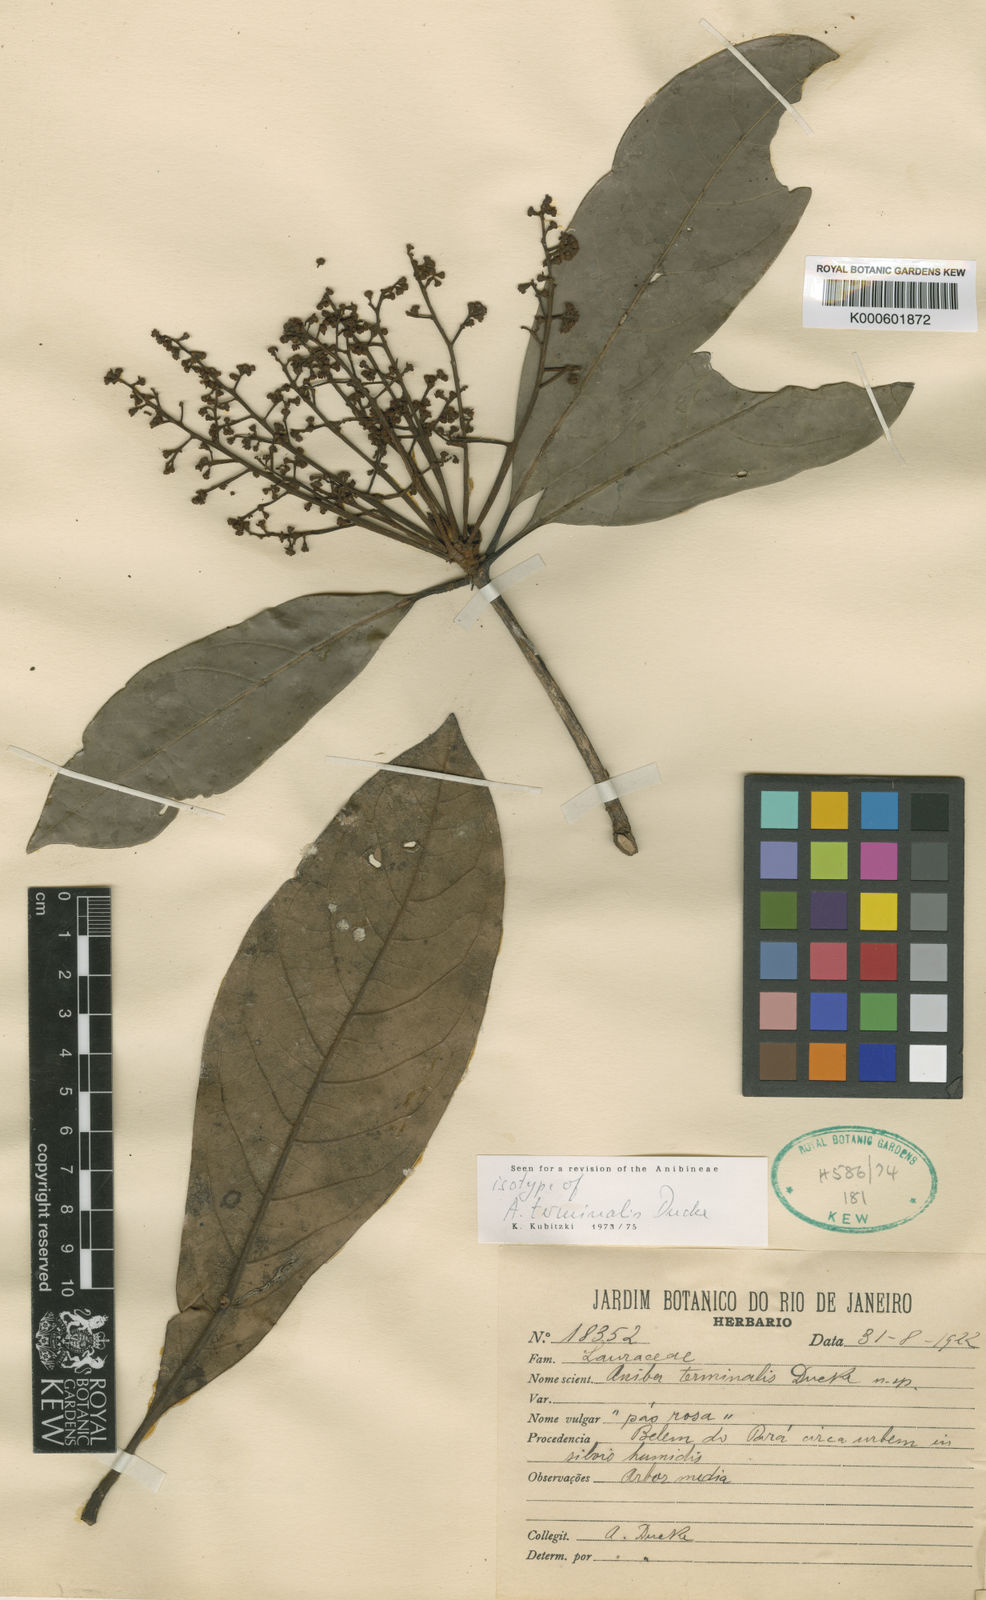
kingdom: Plantae
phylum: Tracheophyta
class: Magnoliopsida
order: Laurales
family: Lauraceae
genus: Aniba
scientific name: Aniba terminalis
